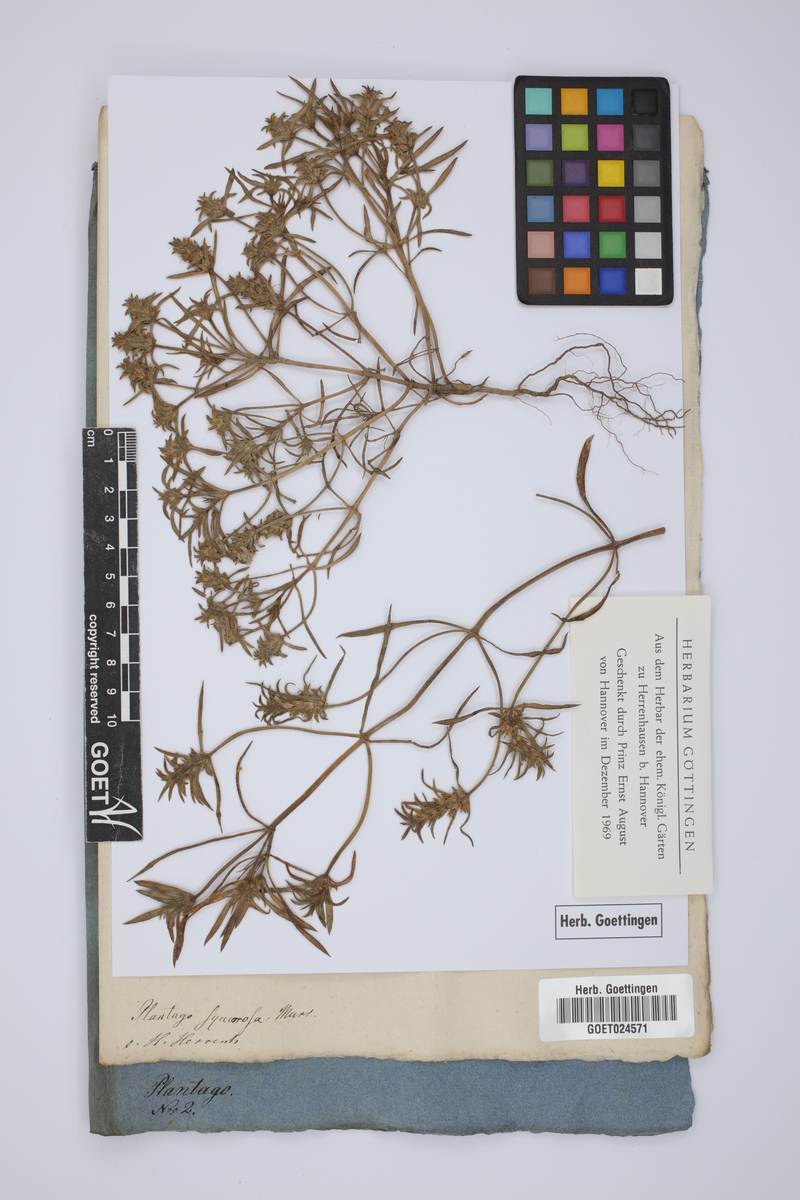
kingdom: Plantae
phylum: Tracheophyta
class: Magnoliopsida
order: Lamiales
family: Plantaginaceae
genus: Plantago
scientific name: Plantago squarrosa
